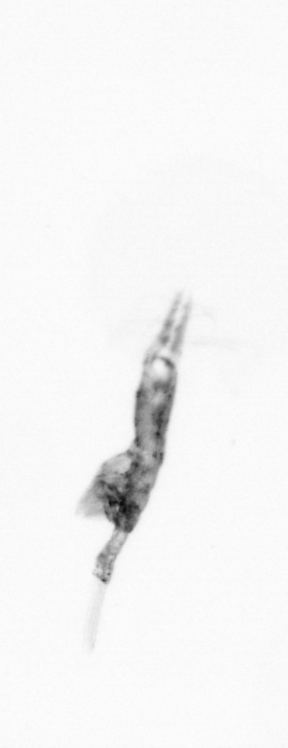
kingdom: Animalia
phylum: Arthropoda
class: Copepoda
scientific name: Copepoda
